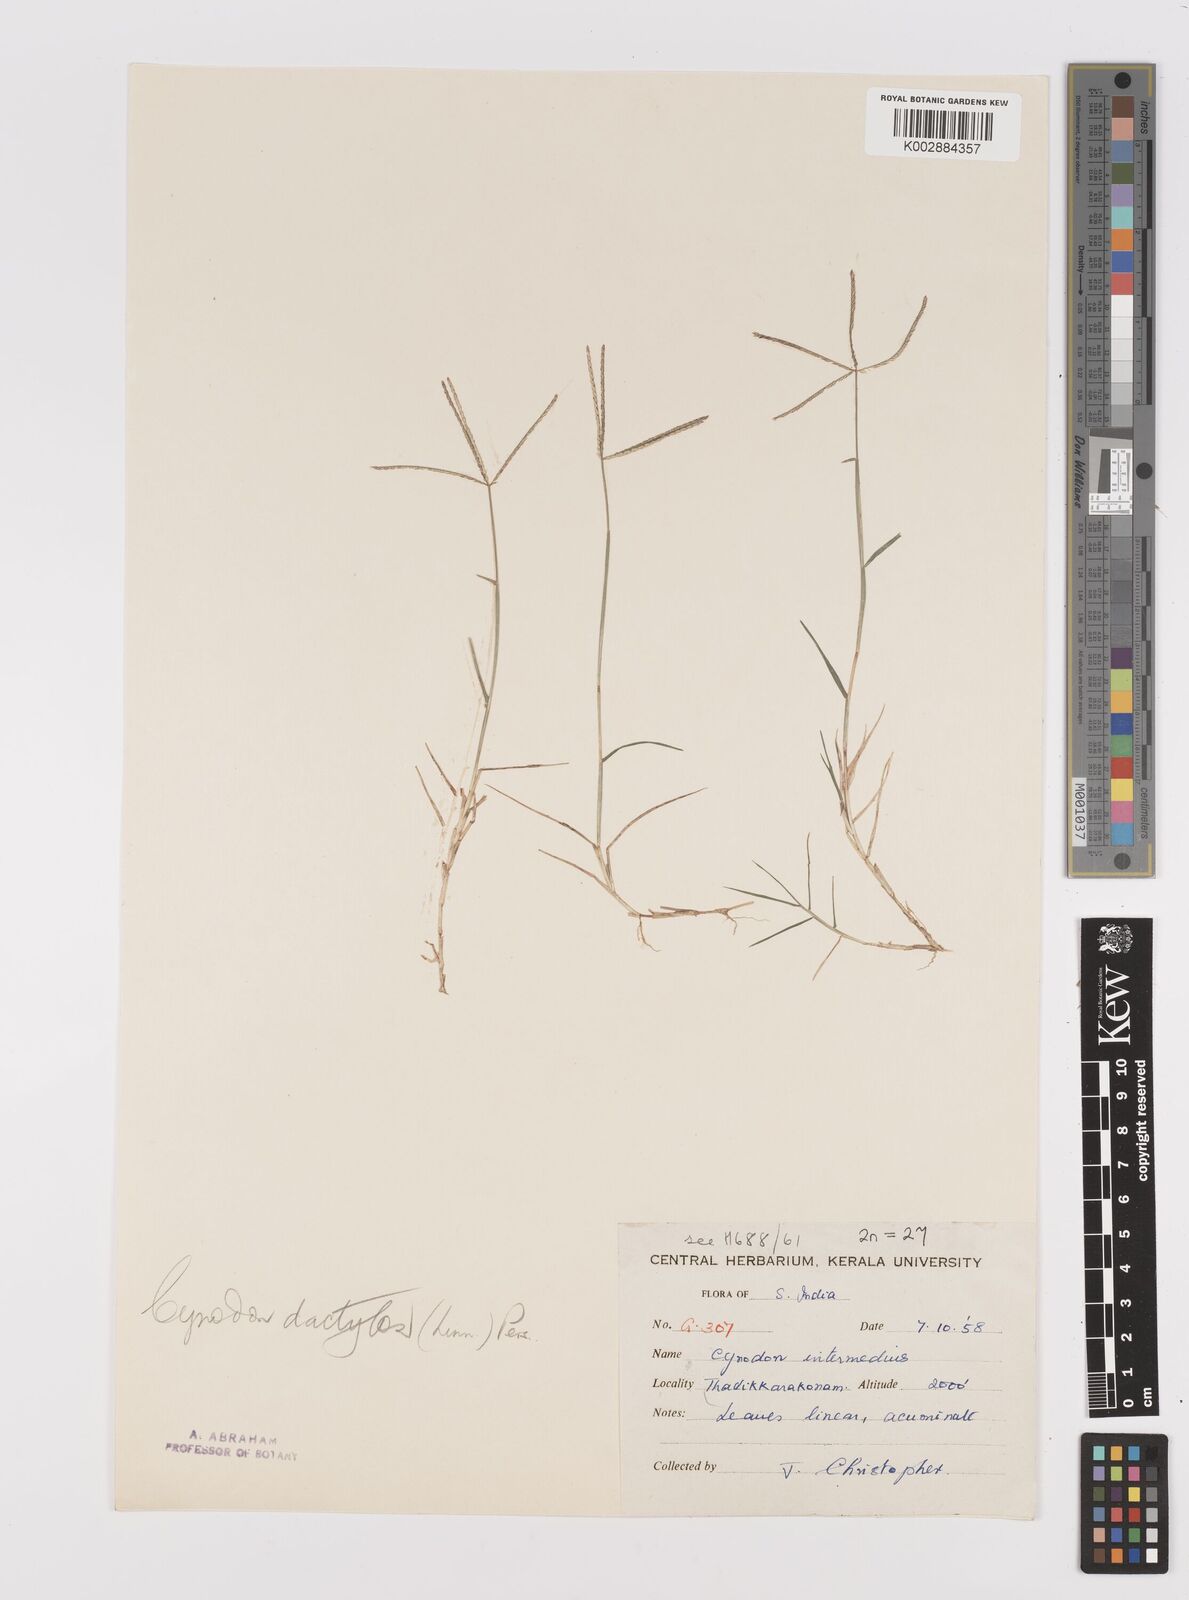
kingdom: Plantae
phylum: Tracheophyta
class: Liliopsida
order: Poales
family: Poaceae
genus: Cynodon
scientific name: Cynodon dactylon
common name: Bermuda grass
